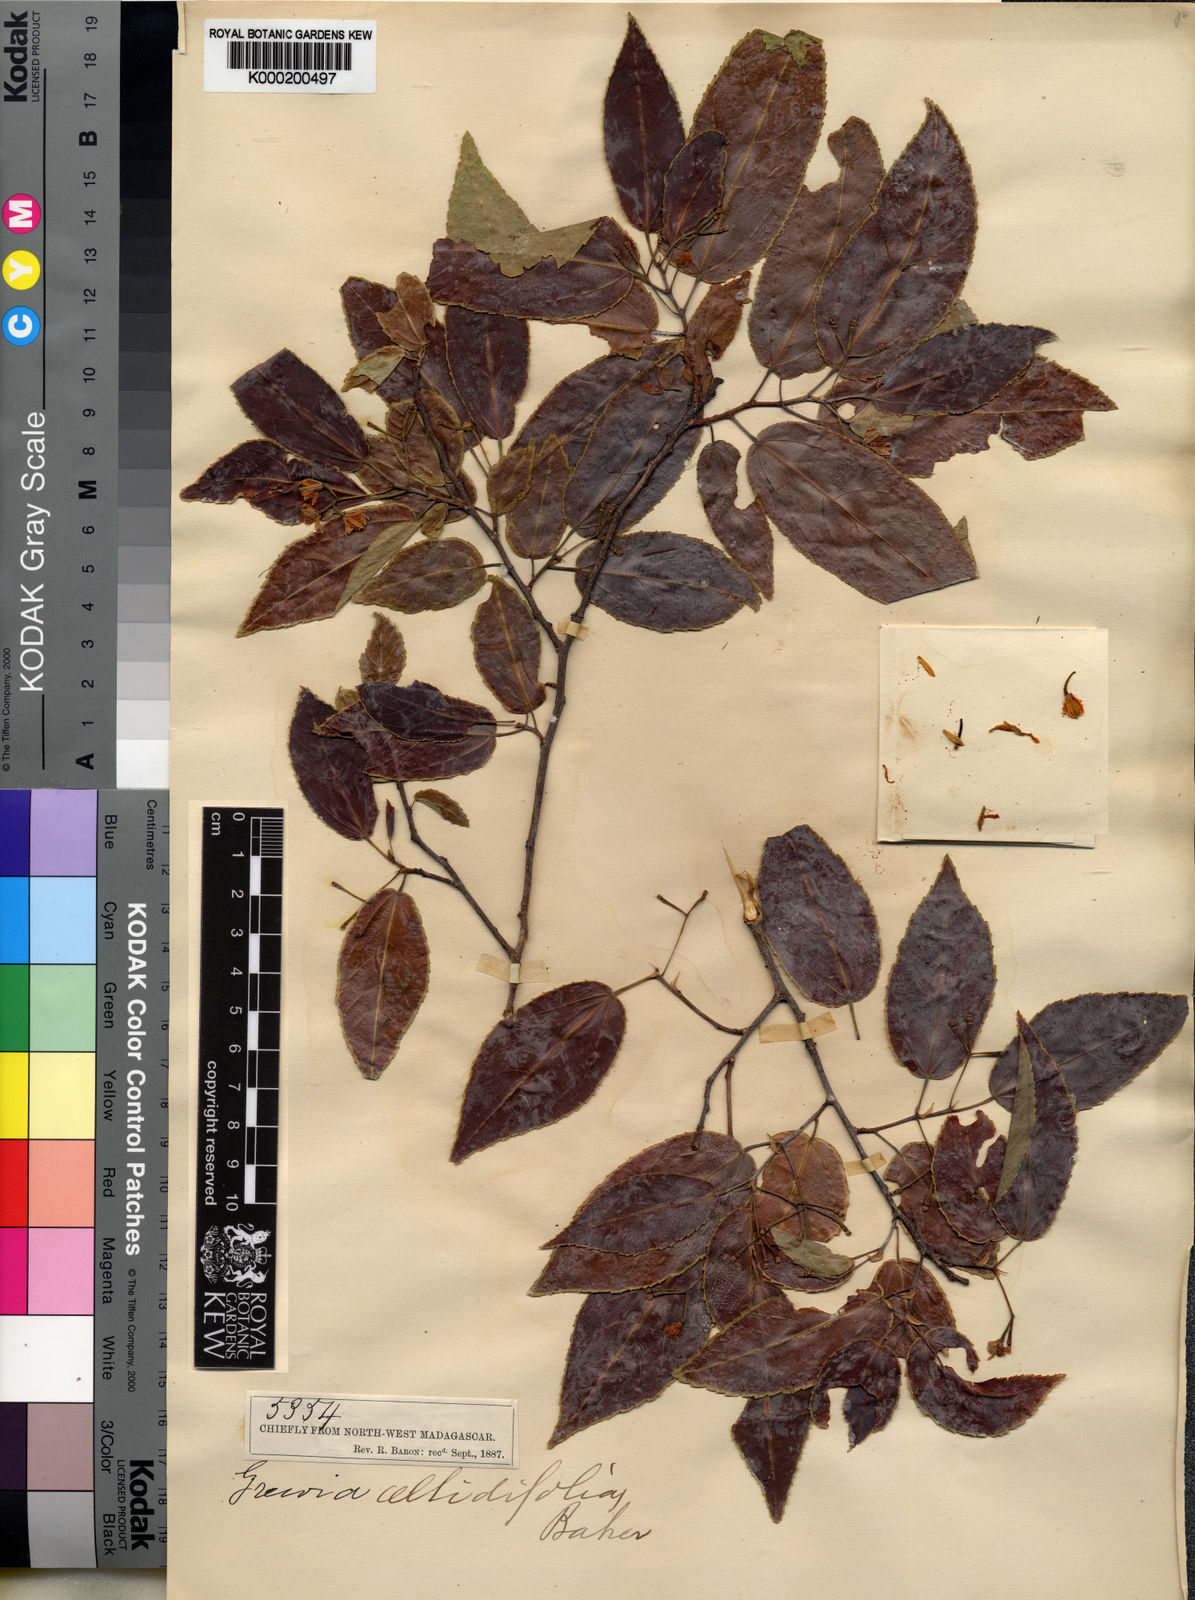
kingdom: Plantae
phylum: Tracheophyta
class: Magnoliopsida
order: Malvales
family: Malvaceae
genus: Grewia
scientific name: Grewia picta
